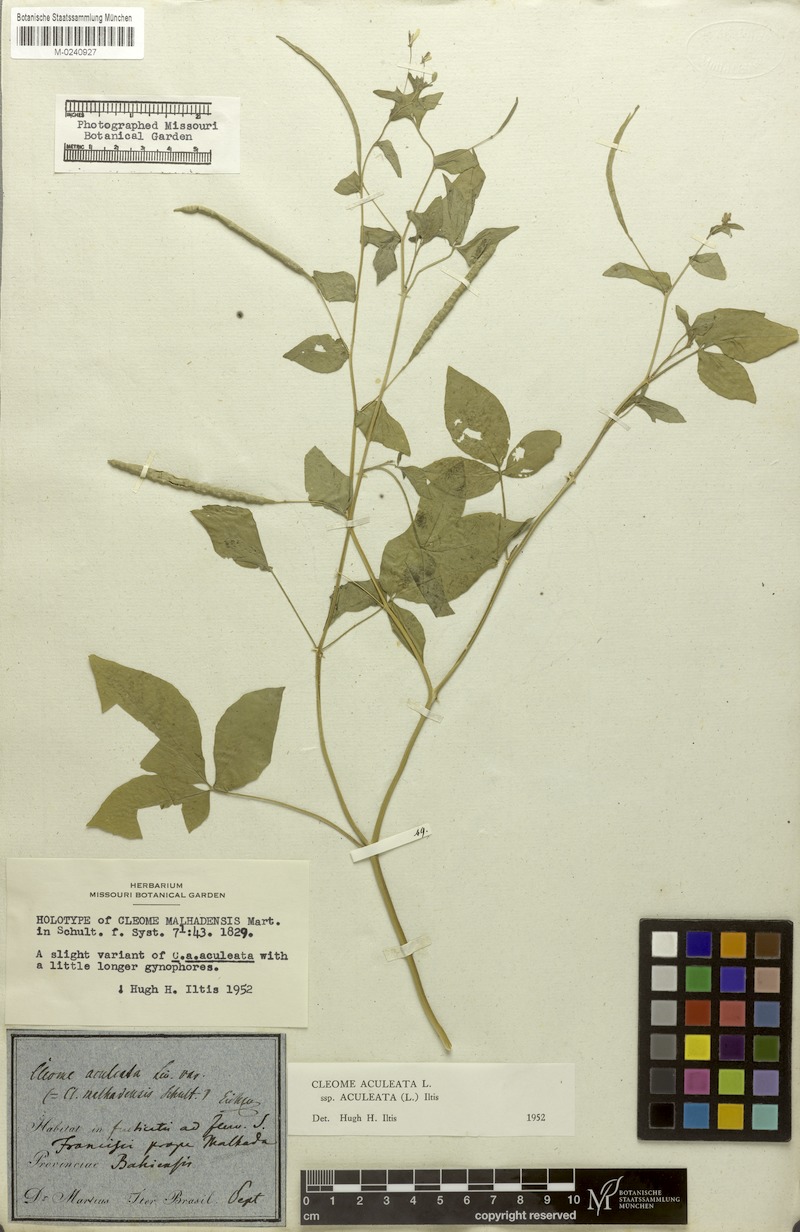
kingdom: Plantae
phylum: Tracheophyta
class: Magnoliopsida
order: Brassicales
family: Cleomaceae
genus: Tarenaya
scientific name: Tarenaya aculeata
